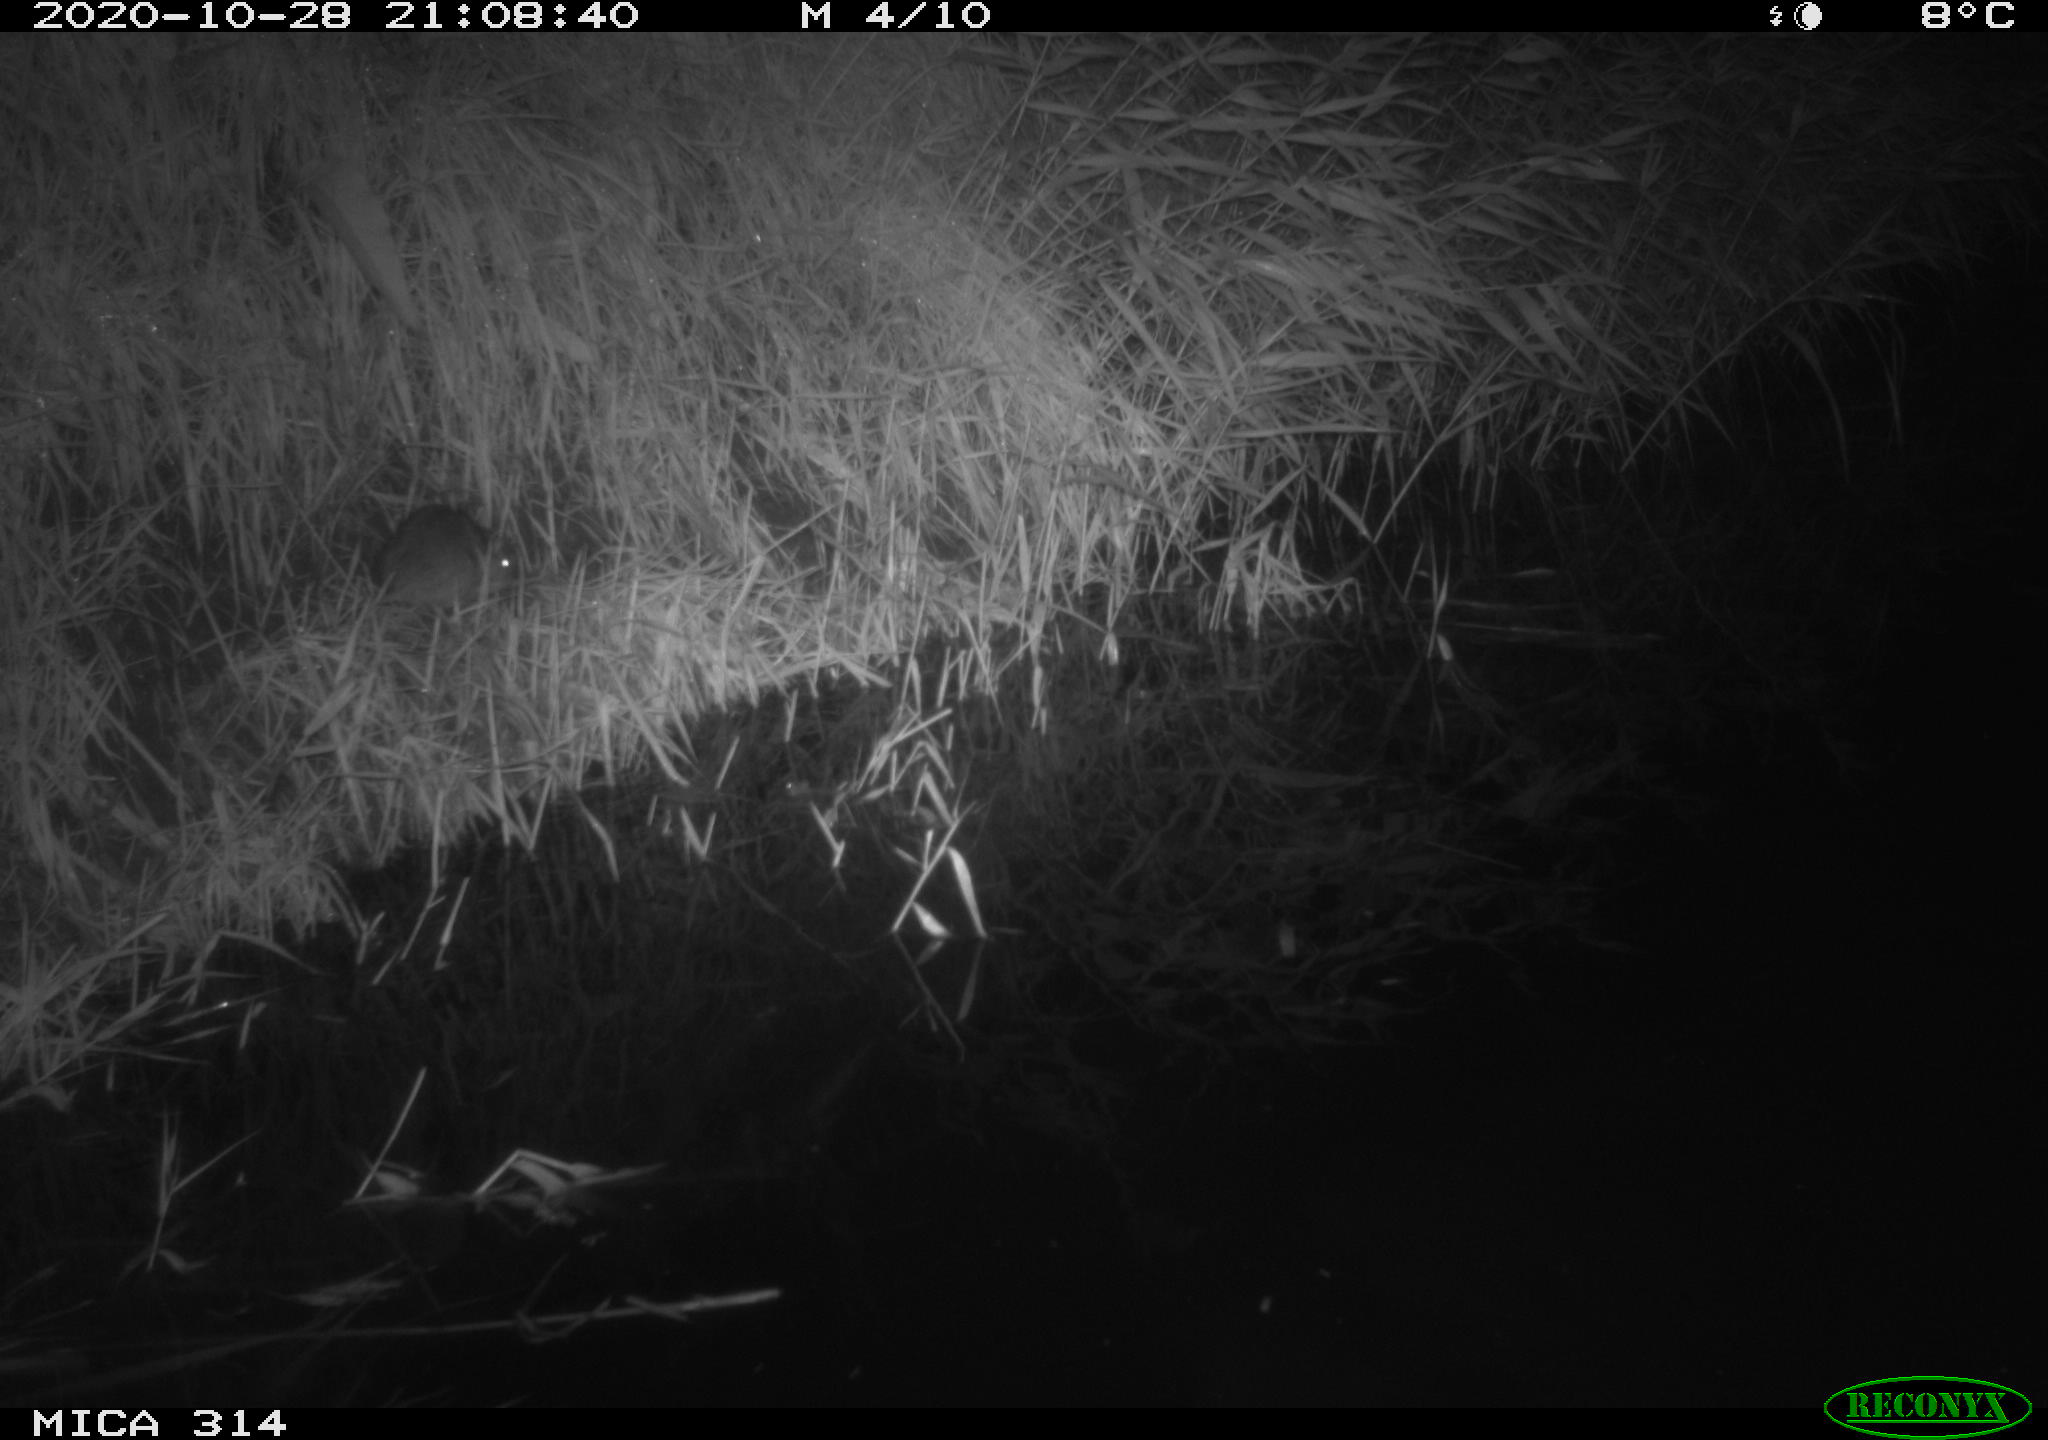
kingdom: Animalia
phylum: Chordata
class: Mammalia
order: Rodentia
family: Muridae
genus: Rattus
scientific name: Rattus norvegicus
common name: Brown rat
